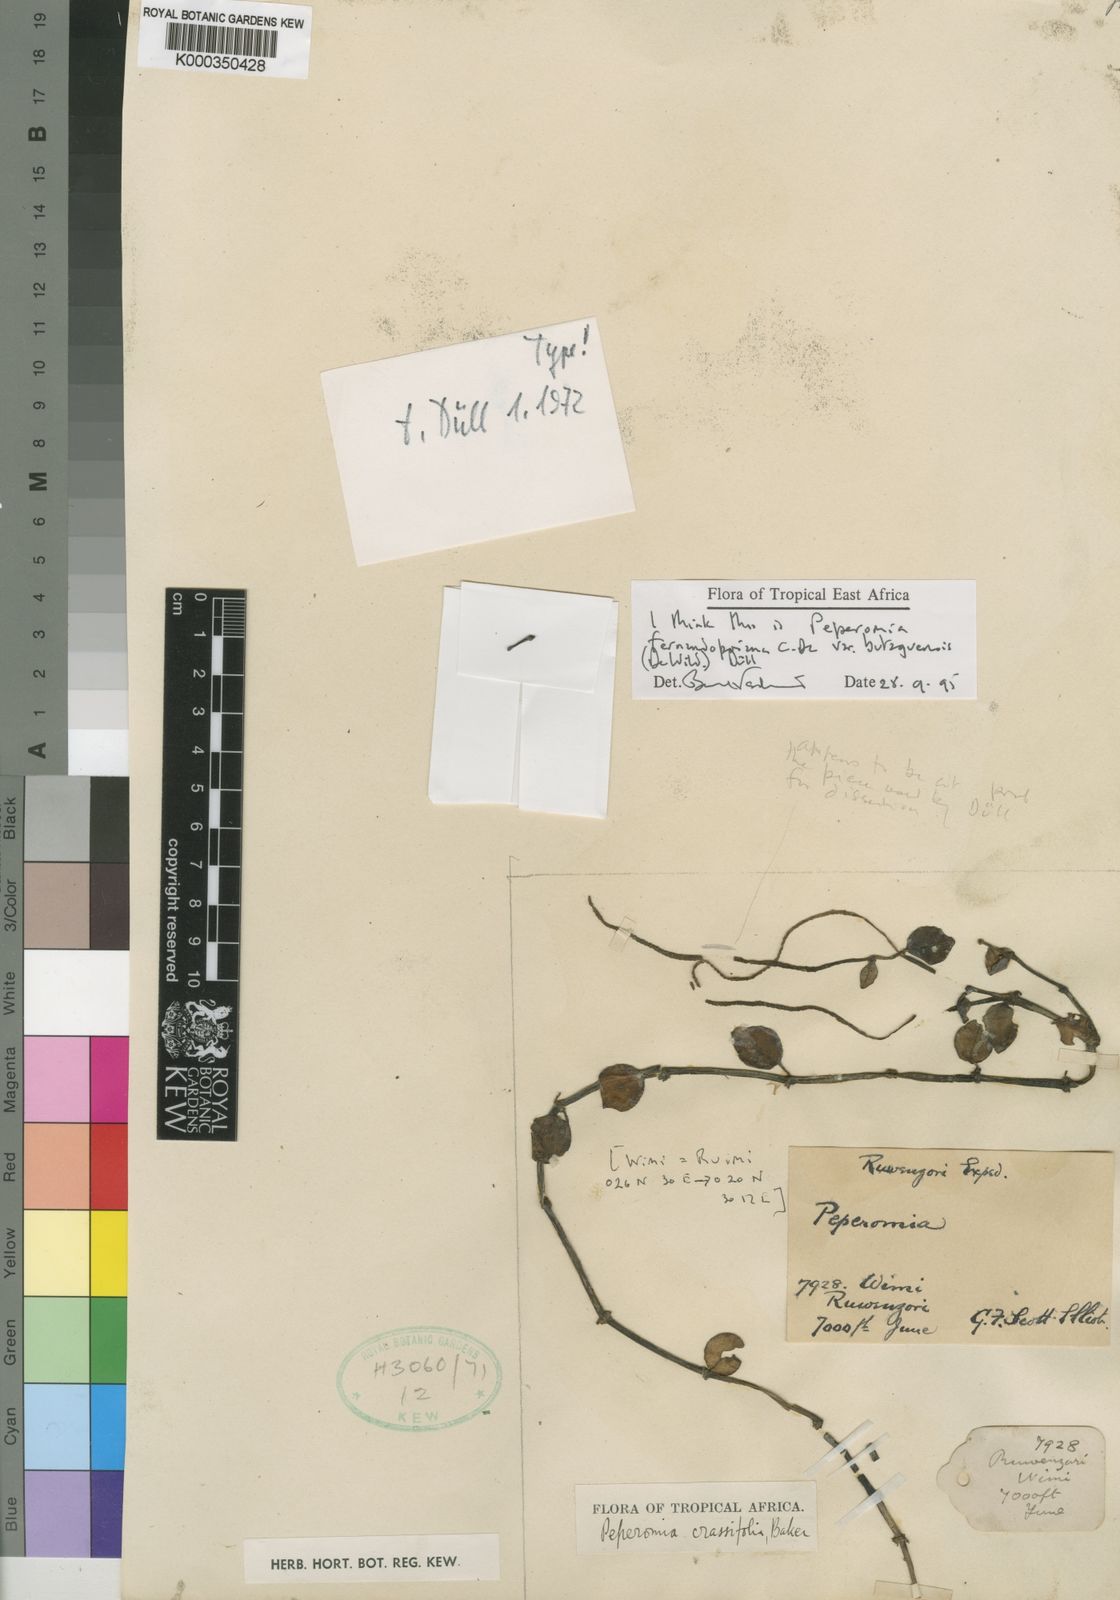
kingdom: Plantae
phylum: Tracheophyta
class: Magnoliopsida
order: Piperales
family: Piperaceae
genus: Peperomia
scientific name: Peperomia fernandopoiana
